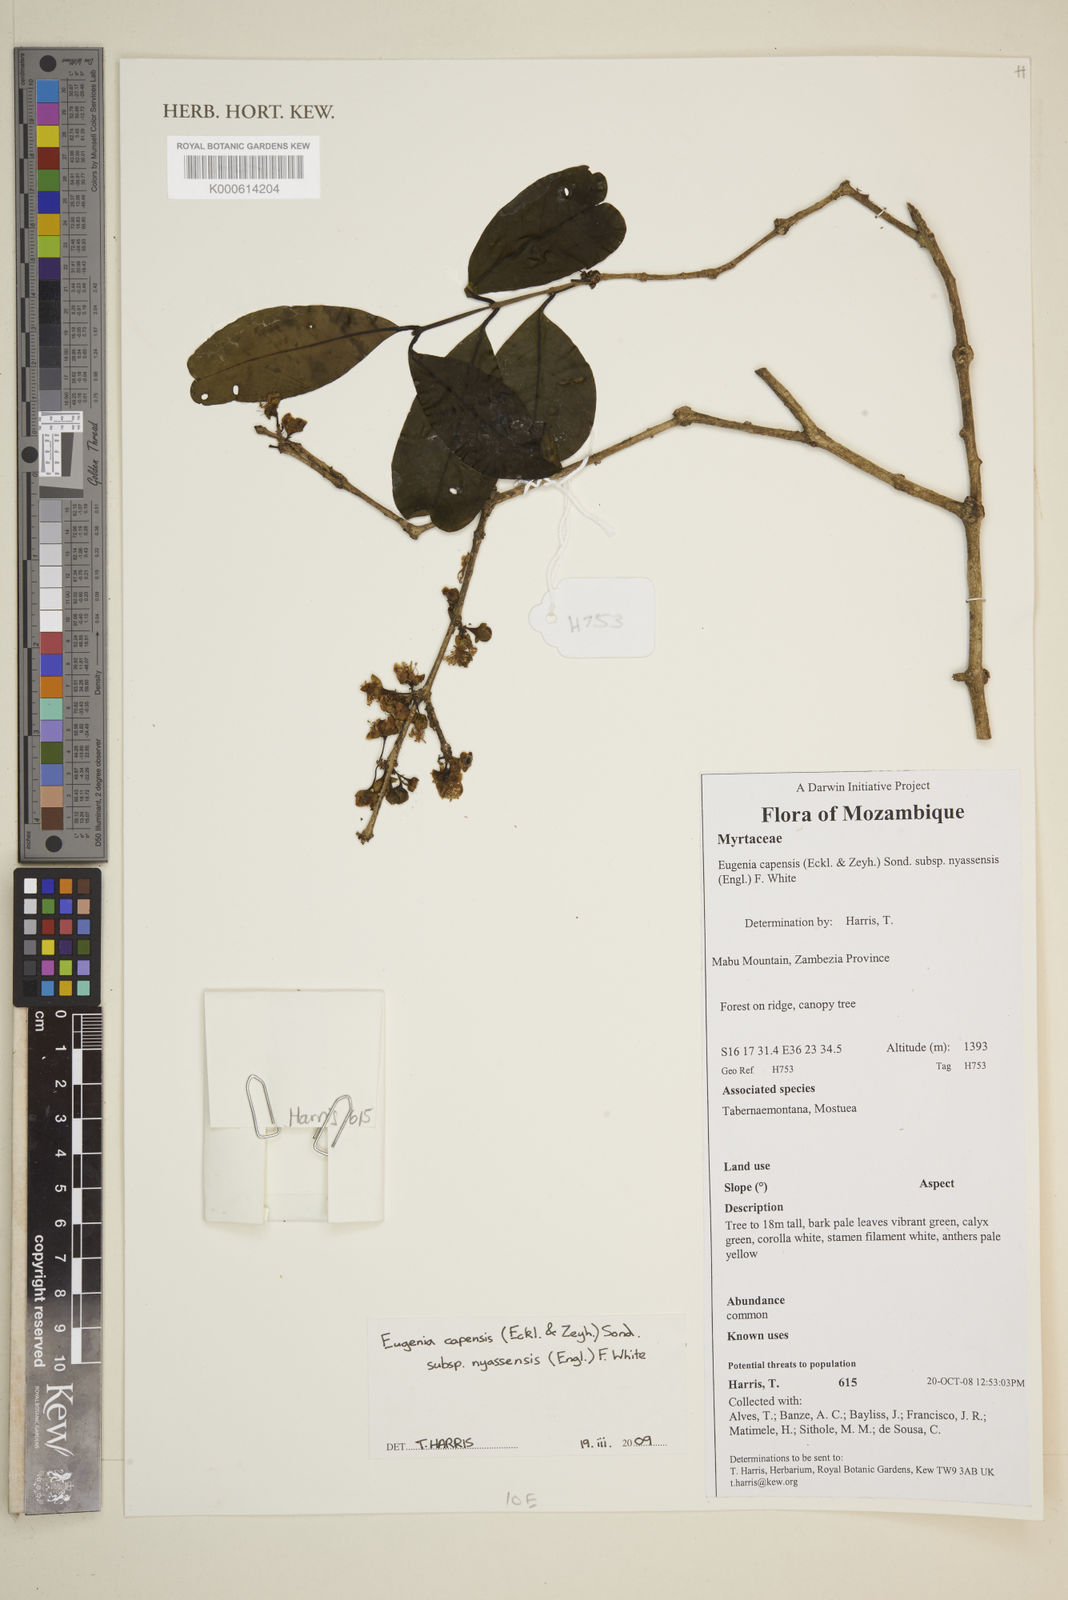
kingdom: Plantae
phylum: Tracheophyta
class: Magnoliopsida
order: Myrtales
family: Myrtaceae
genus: Eugenia
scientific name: Eugenia capensis
